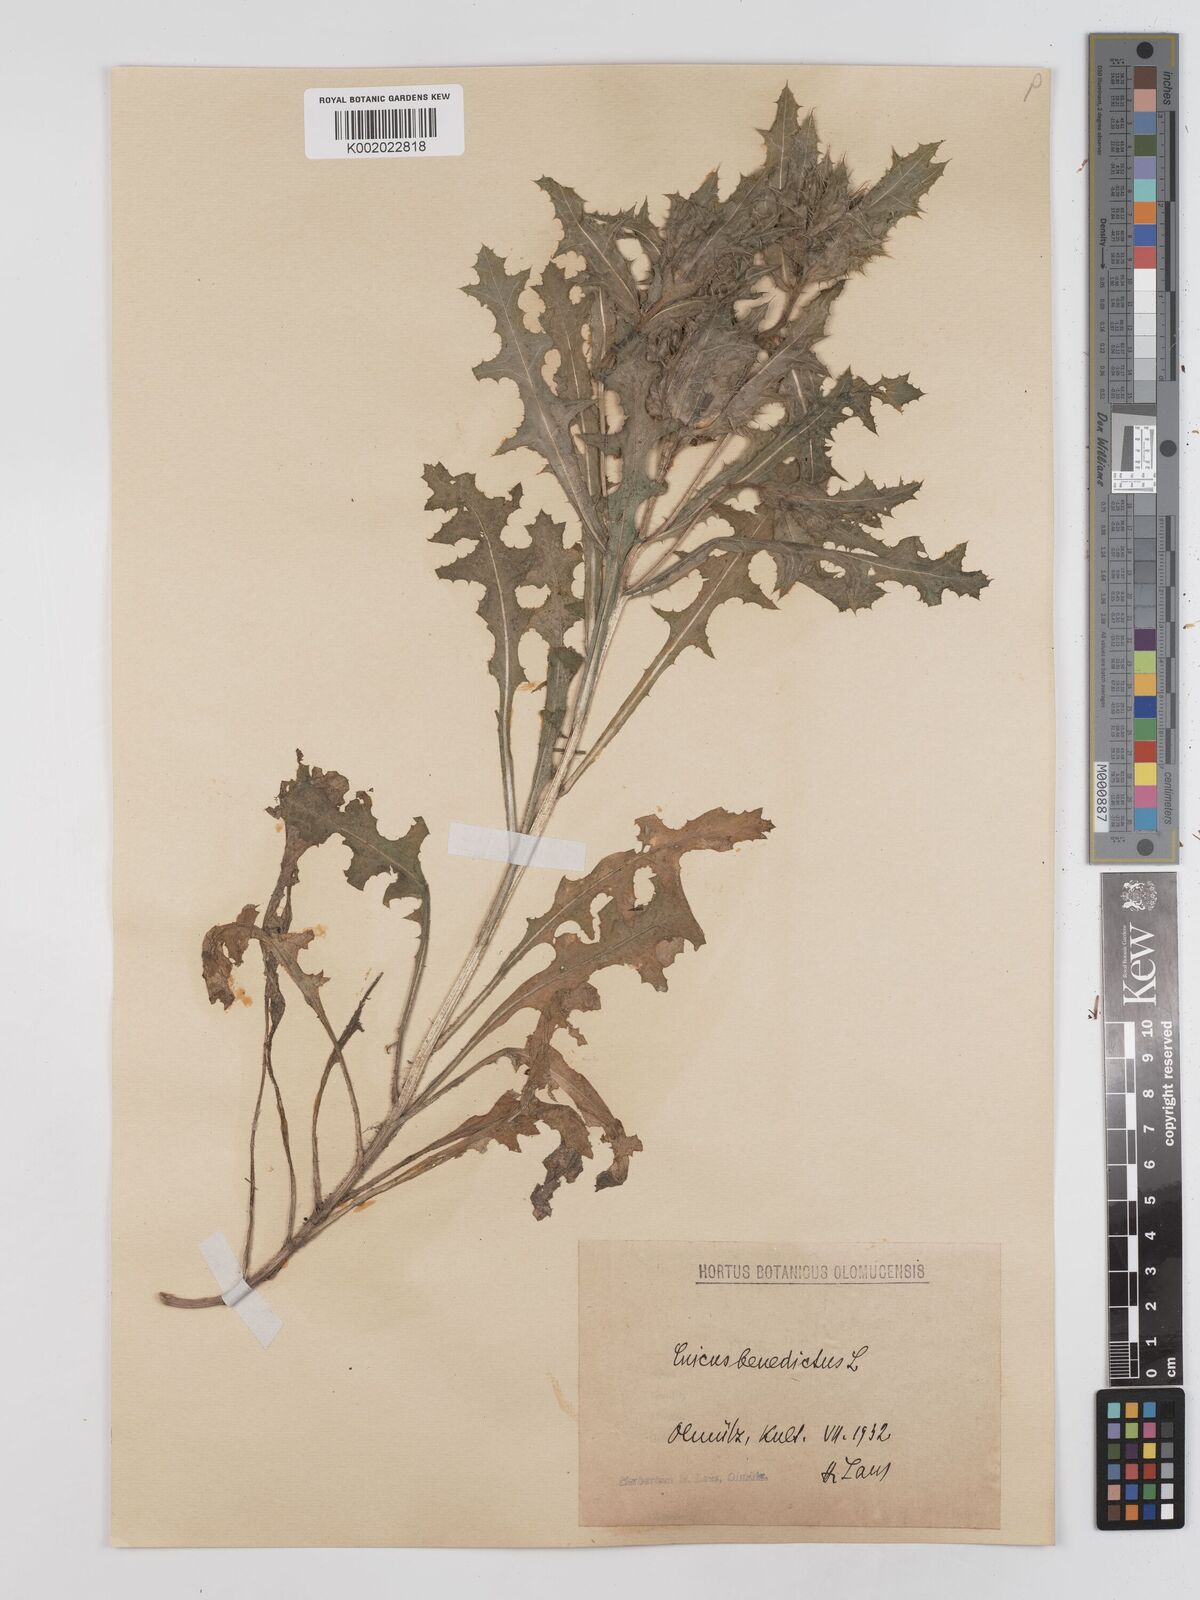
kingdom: Plantae
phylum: Tracheophyta
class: Magnoliopsida
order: Asterales
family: Asteraceae
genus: Centaurea
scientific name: Centaurea benedicta
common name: Blessed thistle
